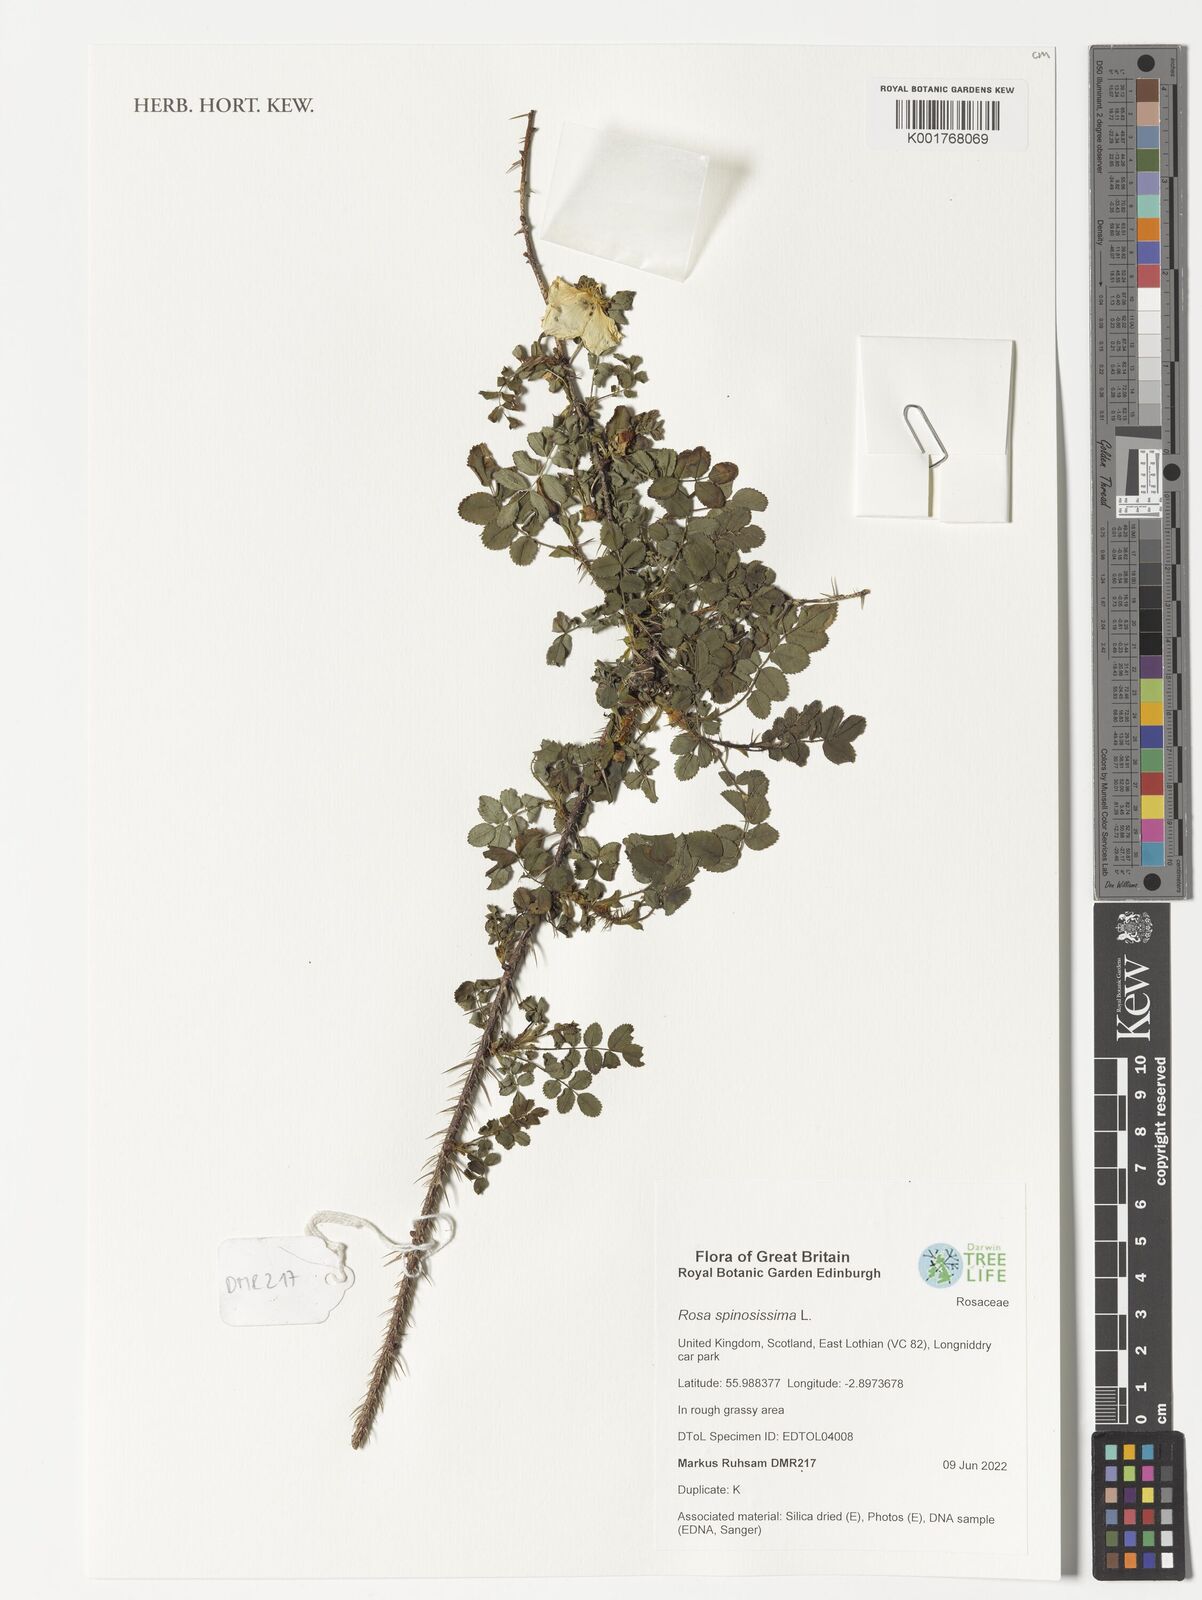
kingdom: Plantae
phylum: Tracheophyta
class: Magnoliopsida
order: Rosales
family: Rosaceae
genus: Rosa
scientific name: Rosa spinosissima
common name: Burnet rose
